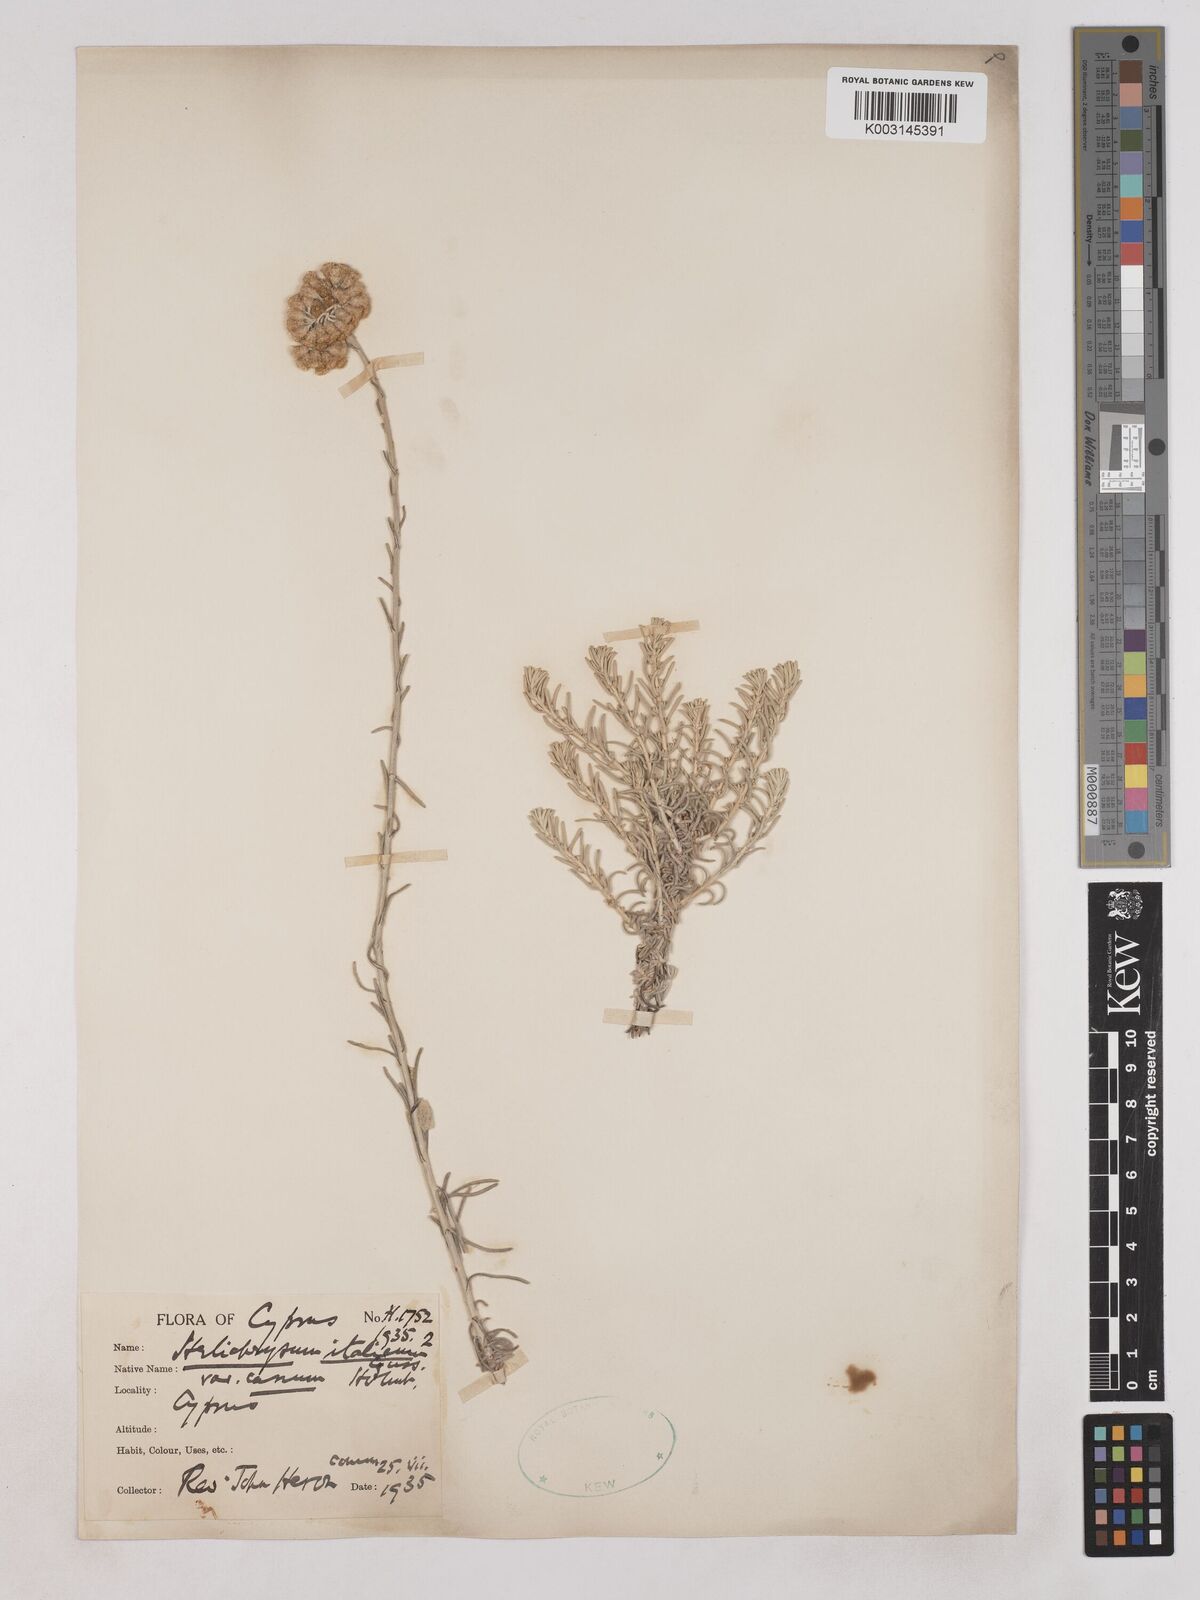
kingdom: Plantae
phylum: Tracheophyta
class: Magnoliopsida
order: Asterales
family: Asteraceae
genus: Helichrysum
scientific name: Helichrysum italicum
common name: Curryplant
